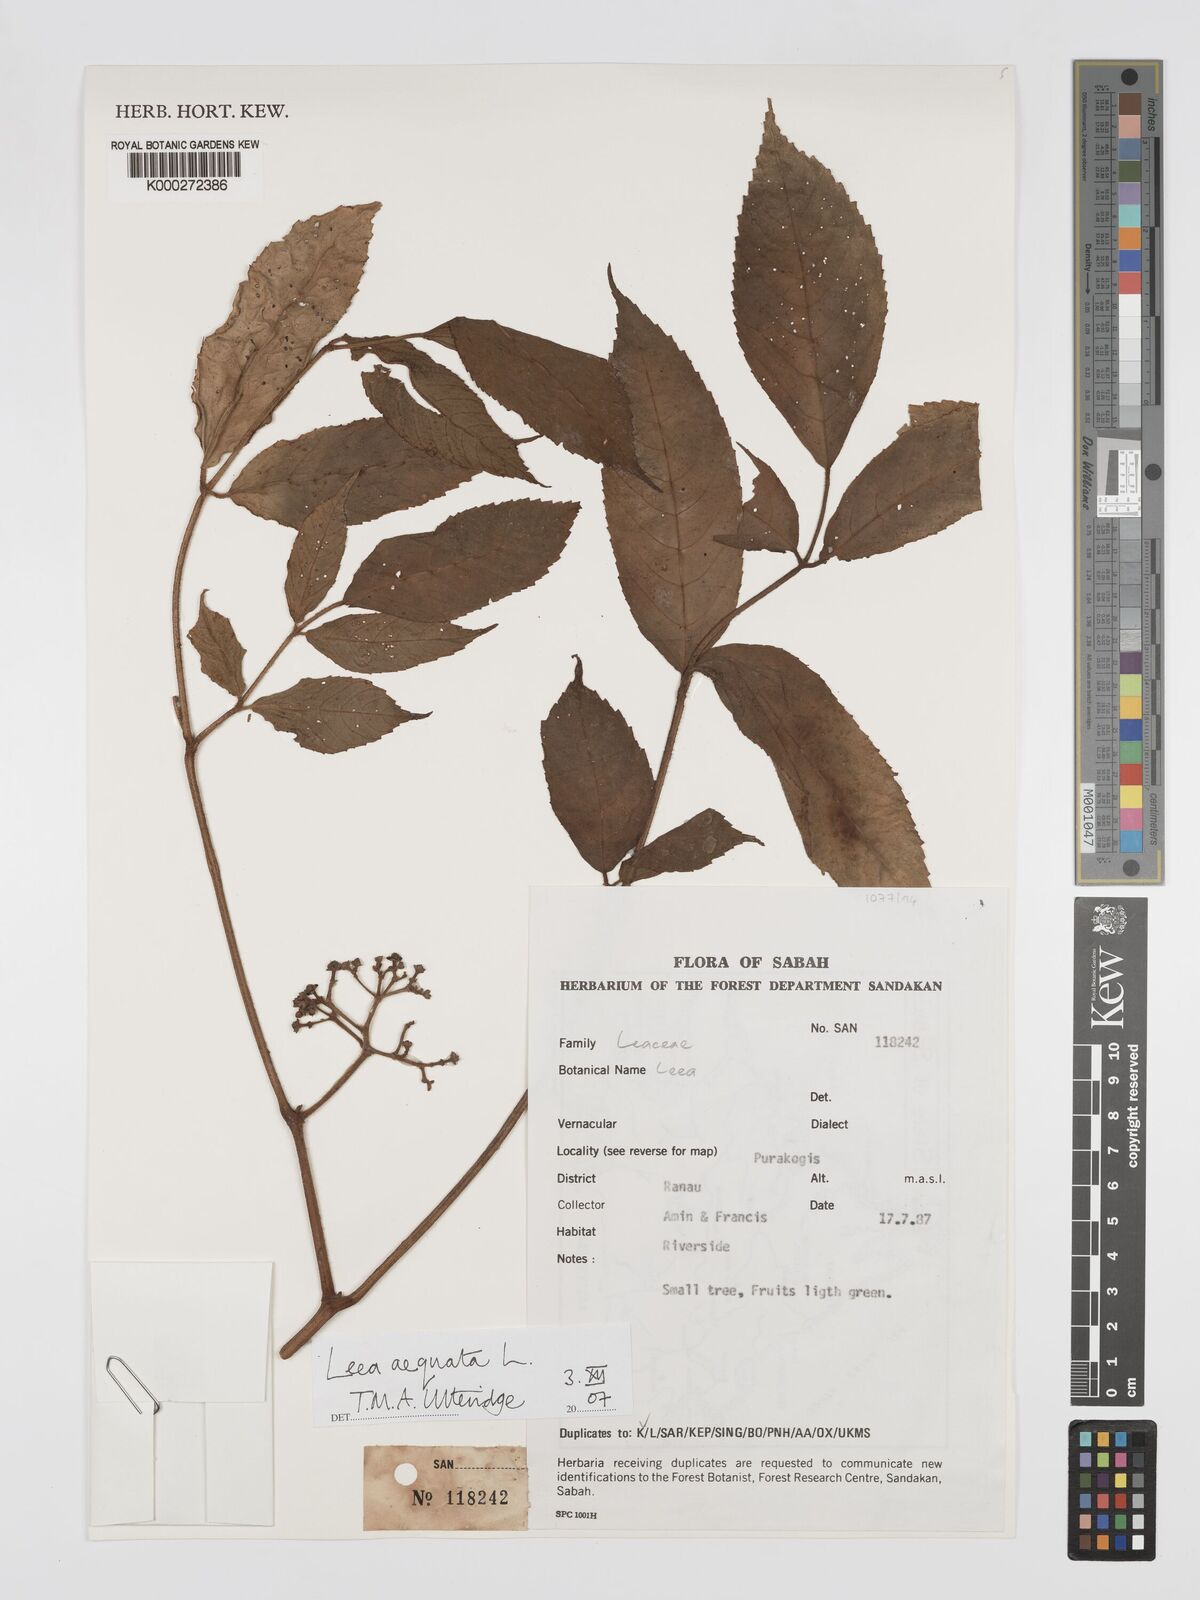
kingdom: Plantae
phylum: Tracheophyta
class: Magnoliopsida
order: Vitales
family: Vitaceae
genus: Leea
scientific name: Leea aequata
